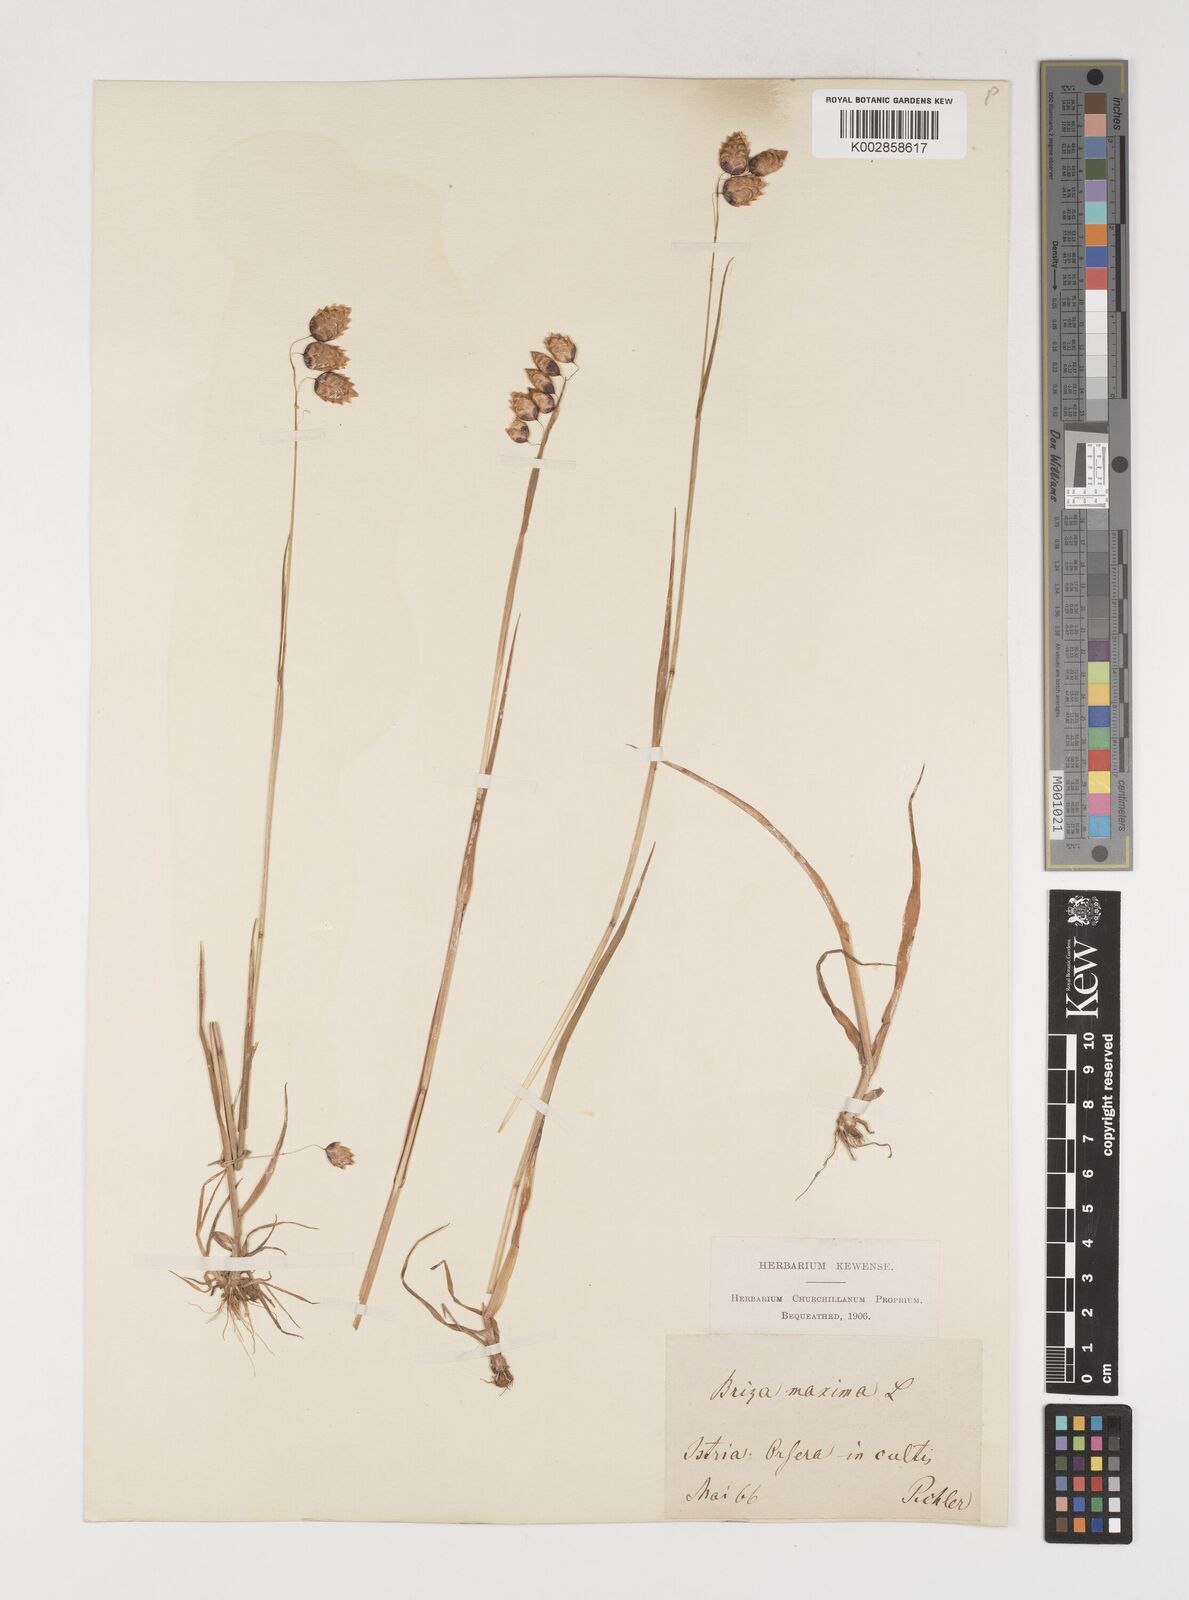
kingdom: Plantae
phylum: Tracheophyta
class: Liliopsida
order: Poales
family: Poaceae
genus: Briza
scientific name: Briza maxima
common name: Big quakinggrass
